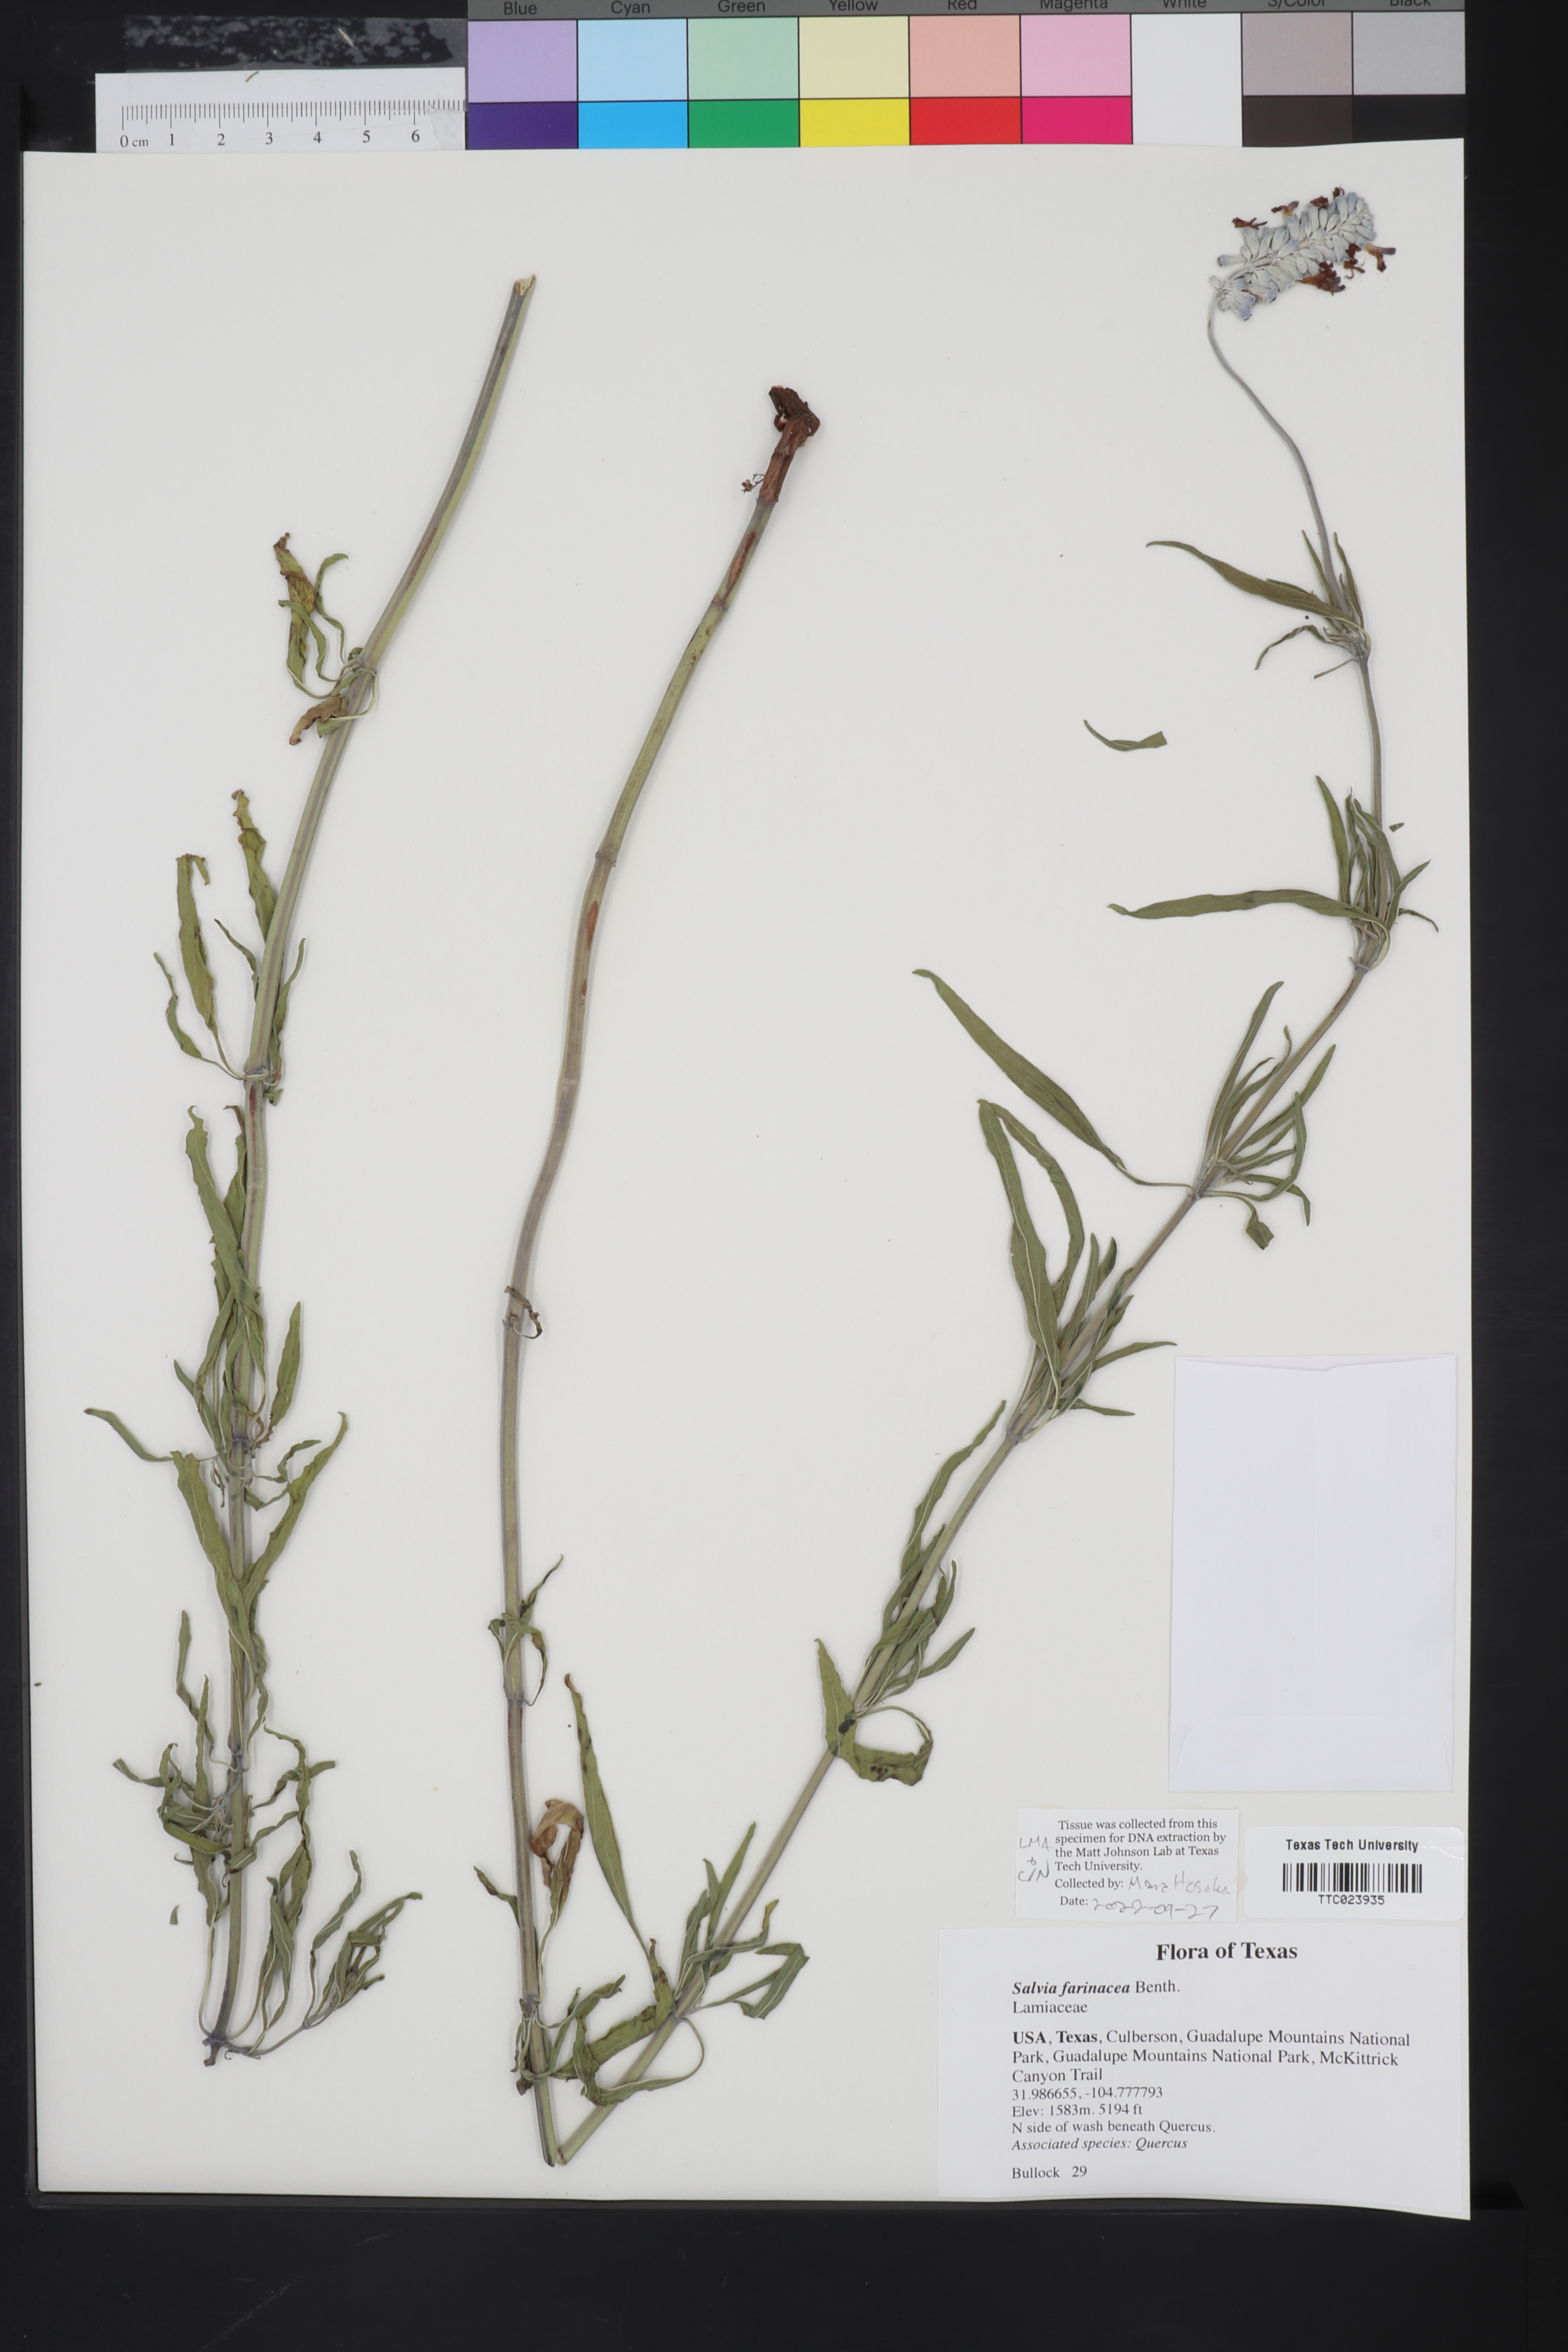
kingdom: Plantae
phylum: Tracheophyta
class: Magnoliopsida
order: Lamiales
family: Lamiaceae
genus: Salvia
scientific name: Salvia farinacea
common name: Mealy sage
